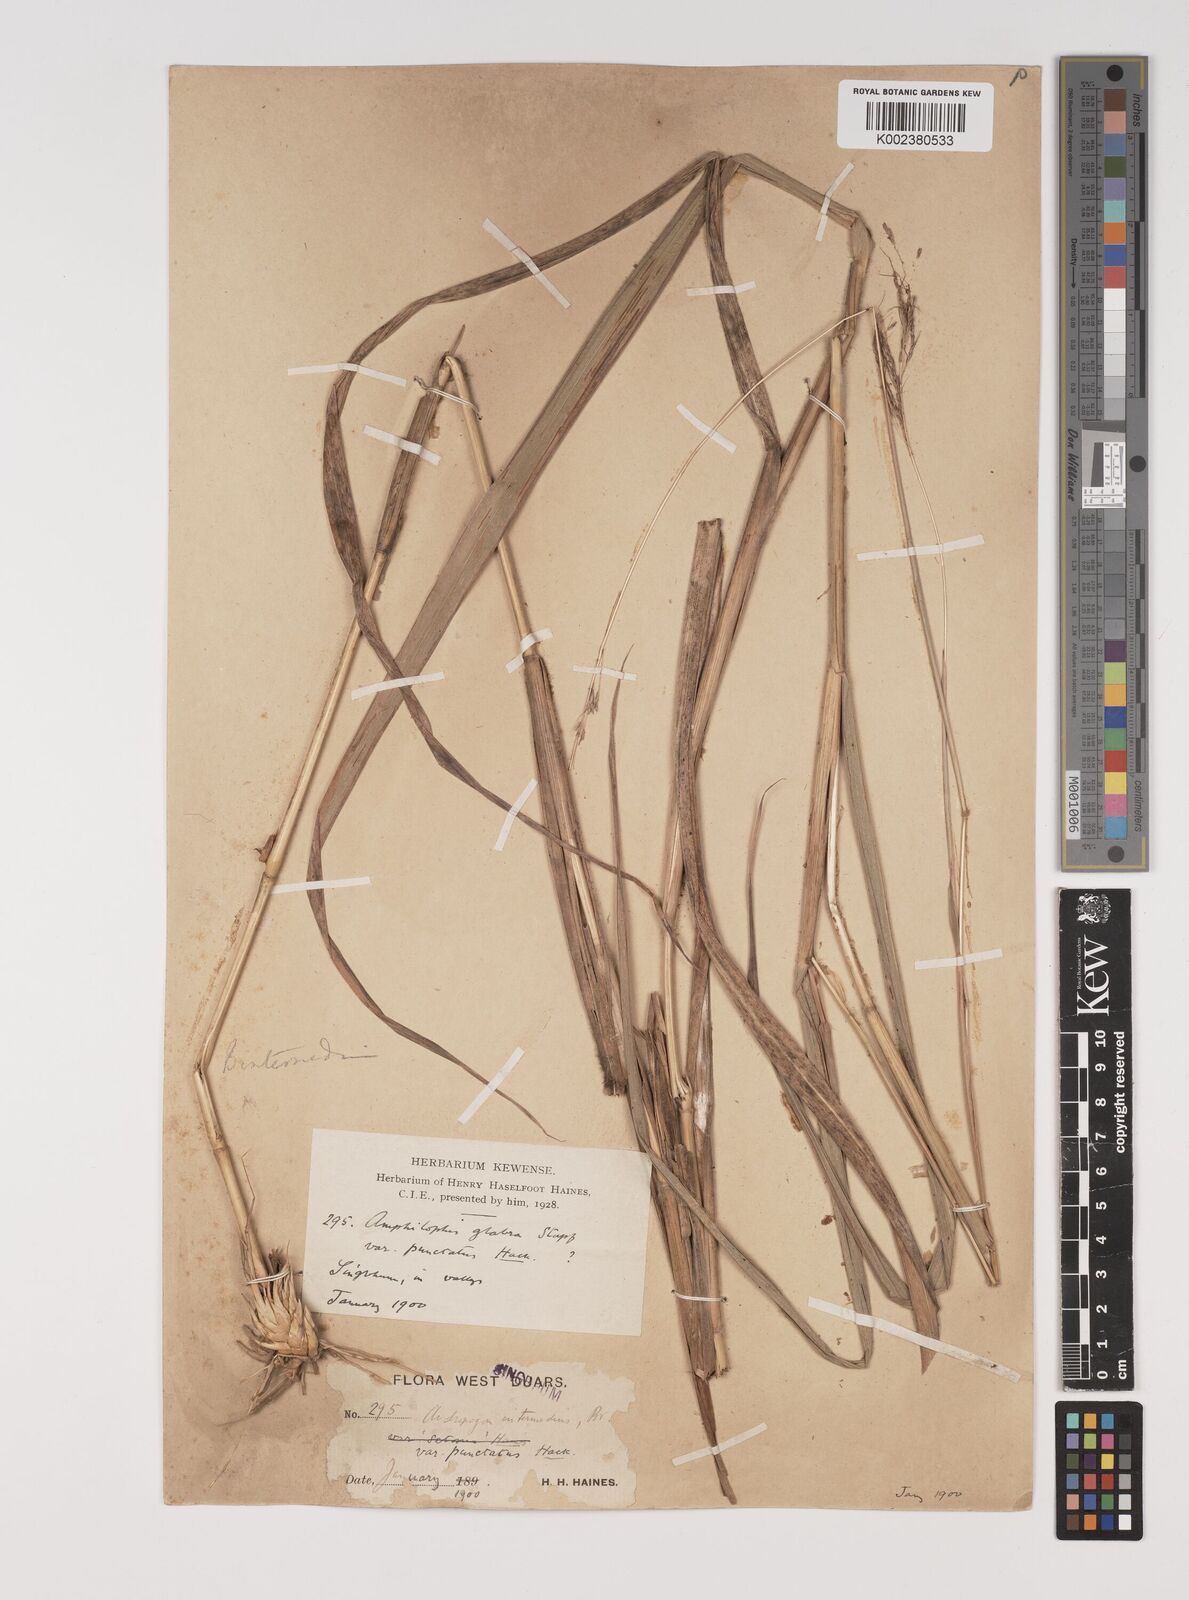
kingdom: Plantae
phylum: Tracheophyta
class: Liliopsida
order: Poales
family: Poaceae
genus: Bothriochloa
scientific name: Bothriochloa bladhii
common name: Caucasian bluestem
